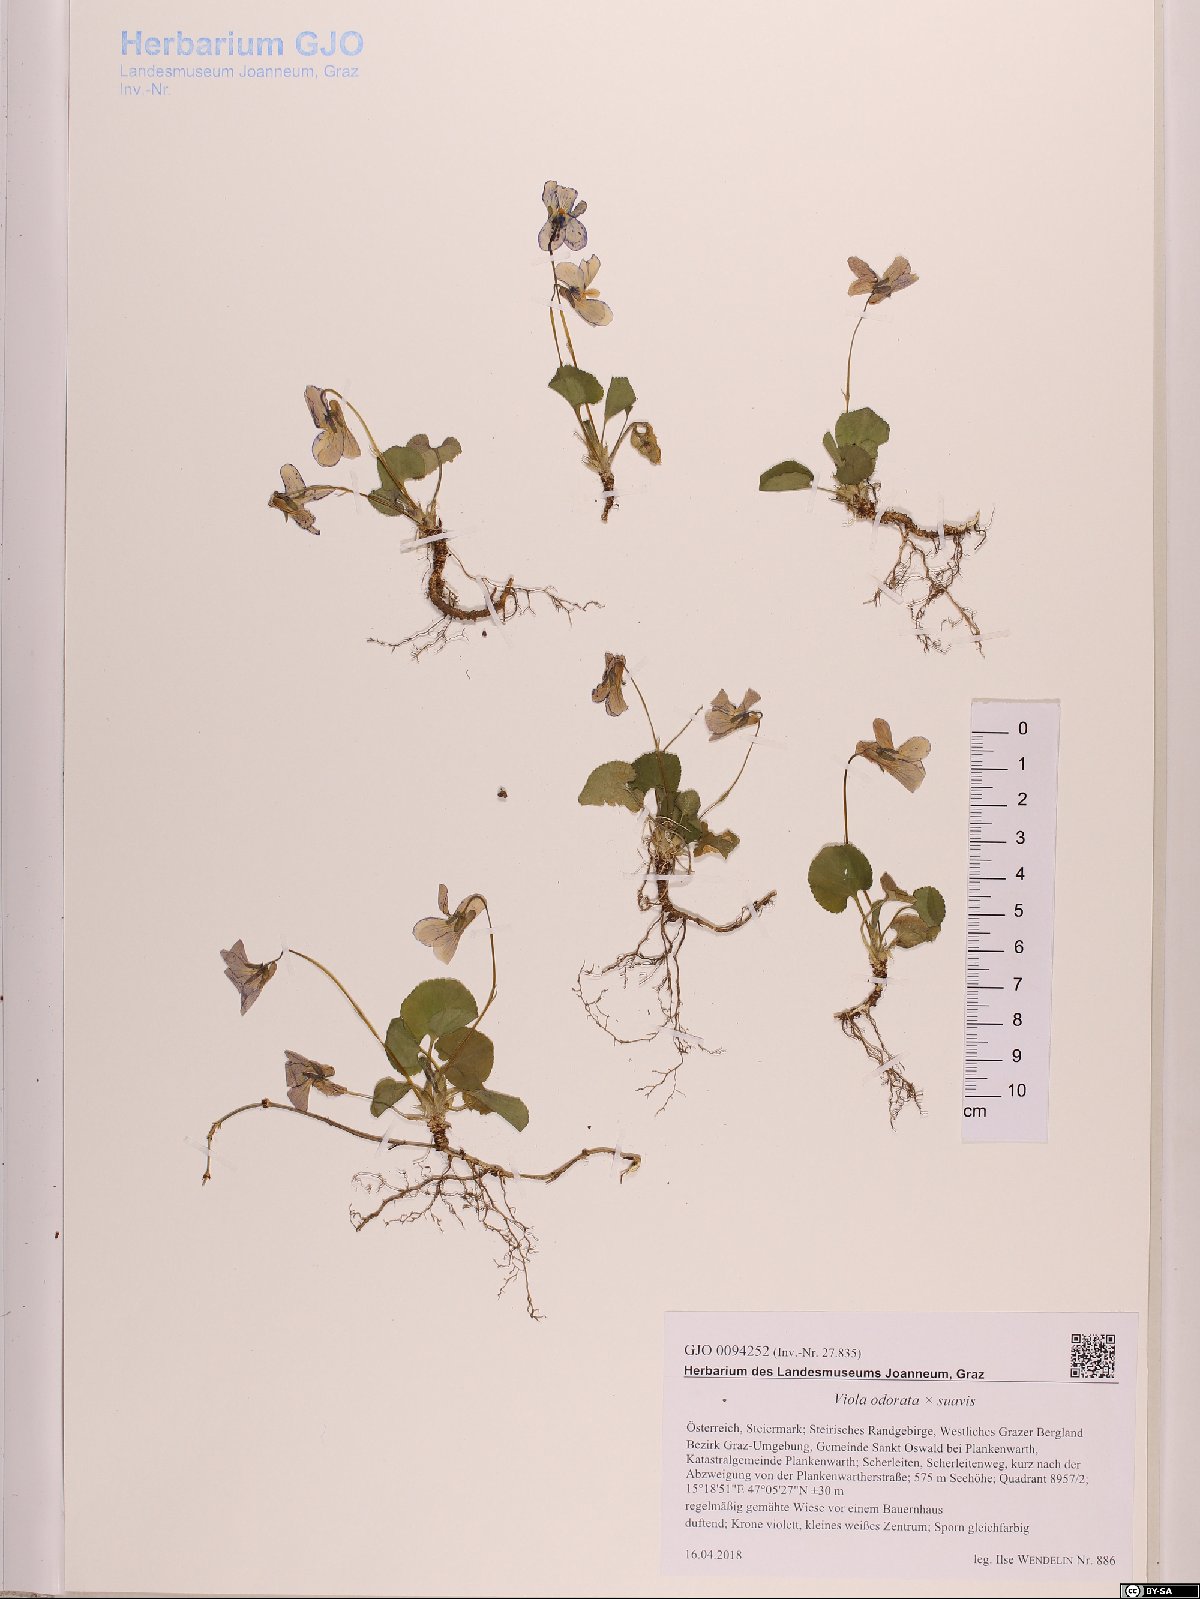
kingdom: Plantae
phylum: Tracheophyta
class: Magnoliopsida
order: Malpighiales
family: Violaceae
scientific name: Violaceae
